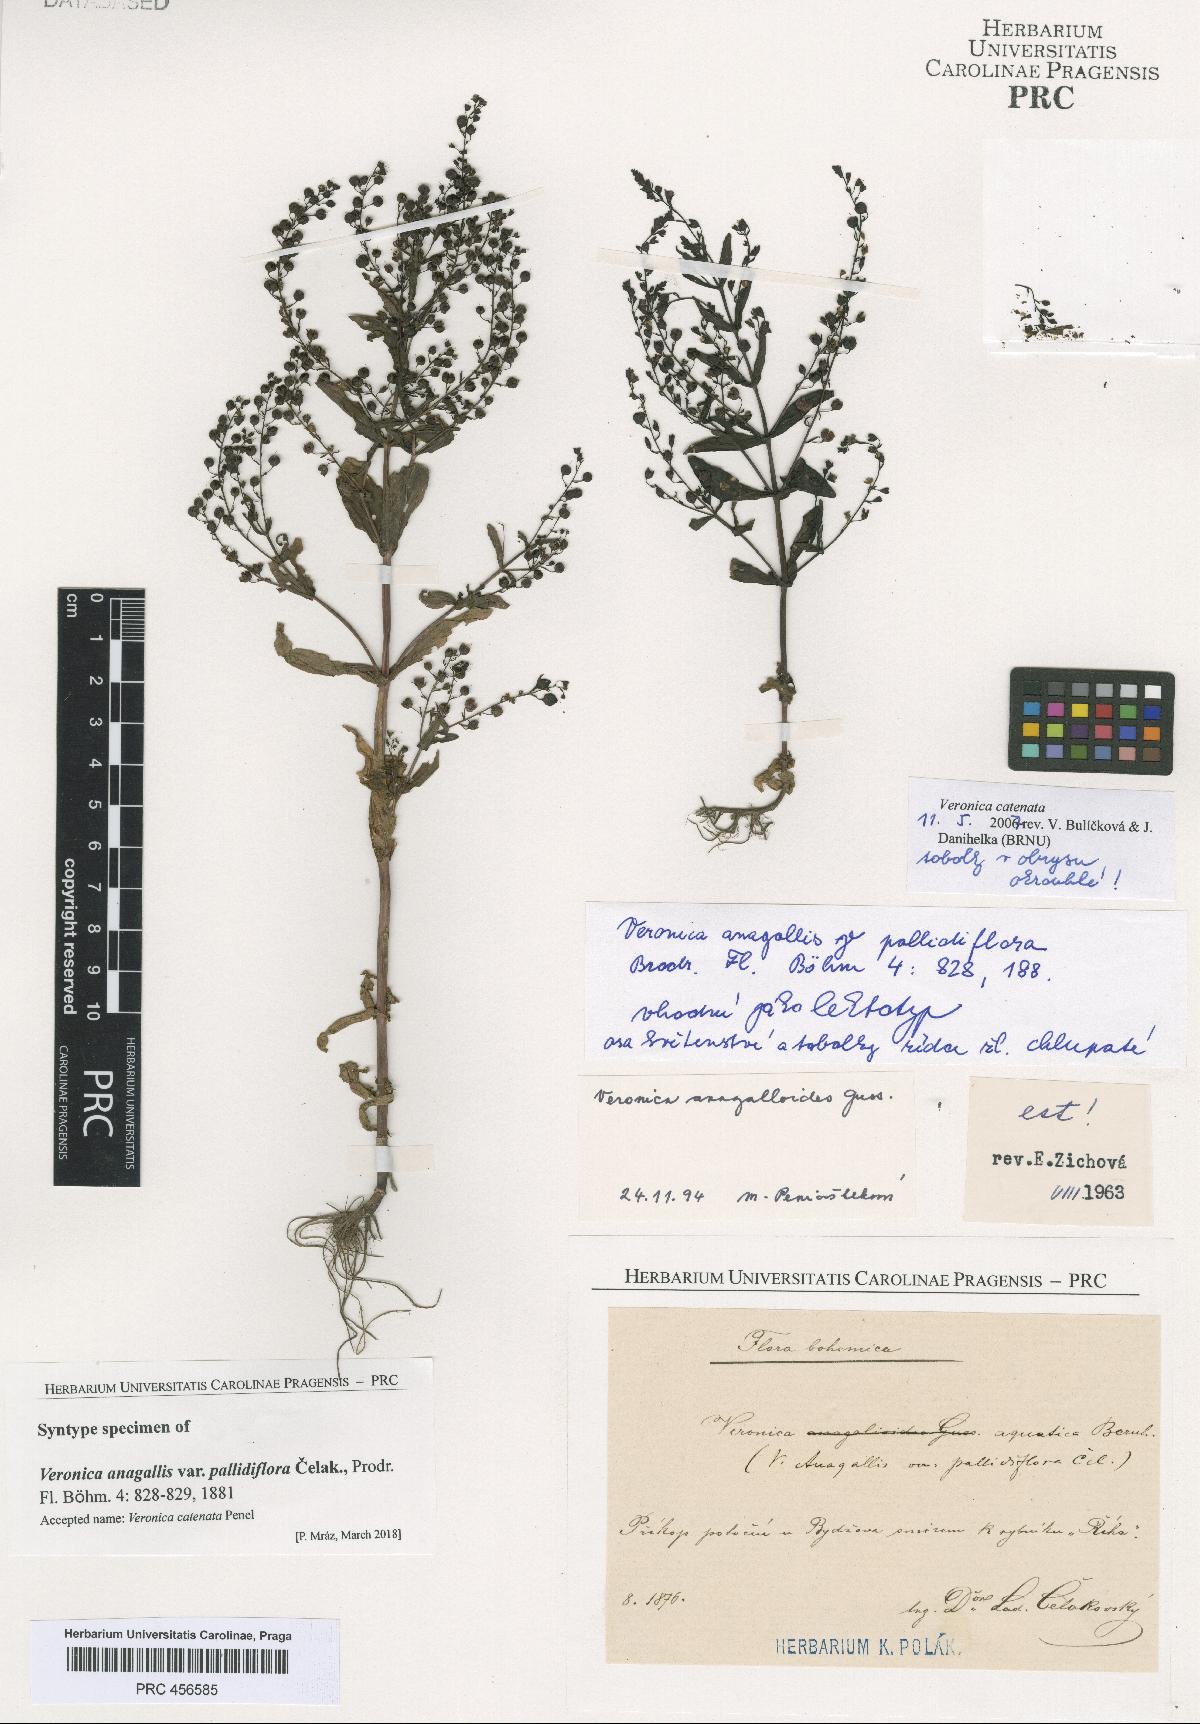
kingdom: Plantae
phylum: Tracheophyta
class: Magnoliopsida
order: Lamiales
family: Plantaginaceae
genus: Veronica
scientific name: Veronica catenata
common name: Pink water-speedwell
